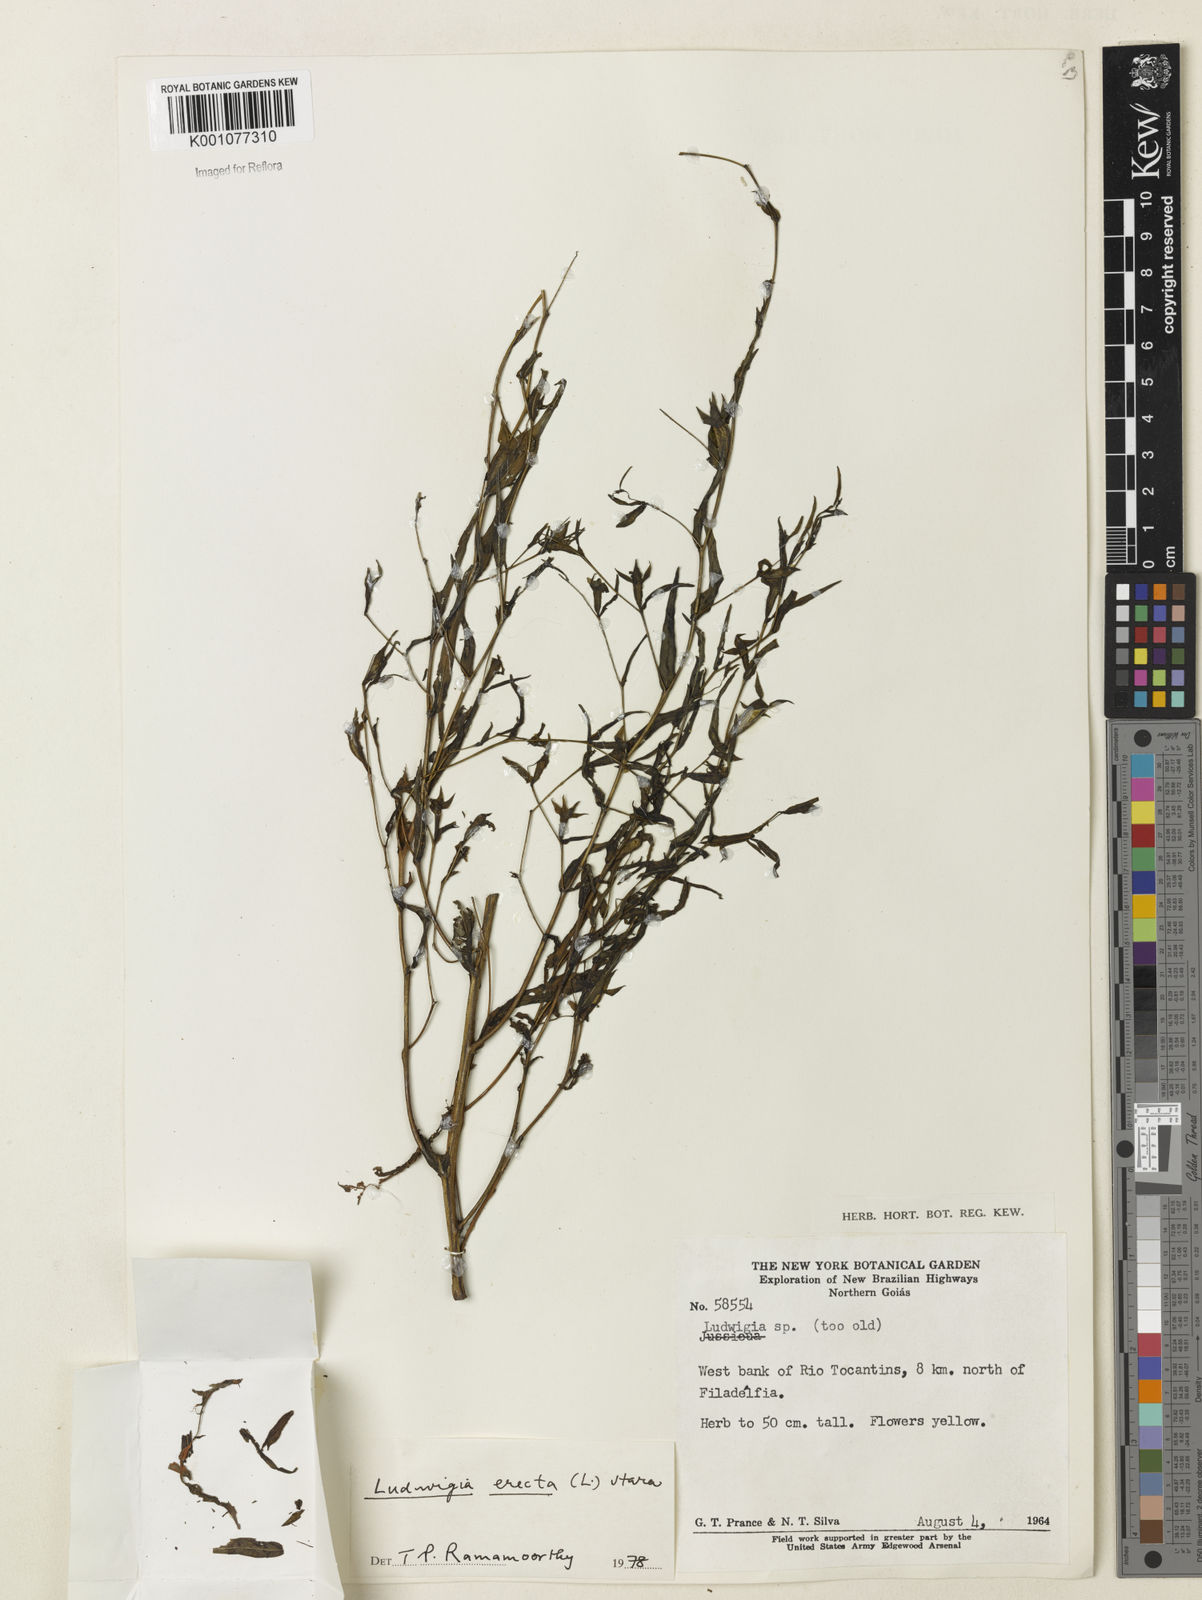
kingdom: Plantae
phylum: Tracheophyta
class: Magnoliopsida
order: Myrtales
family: Onagraceae
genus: Ludwigia
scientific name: Ludwigia erecta
